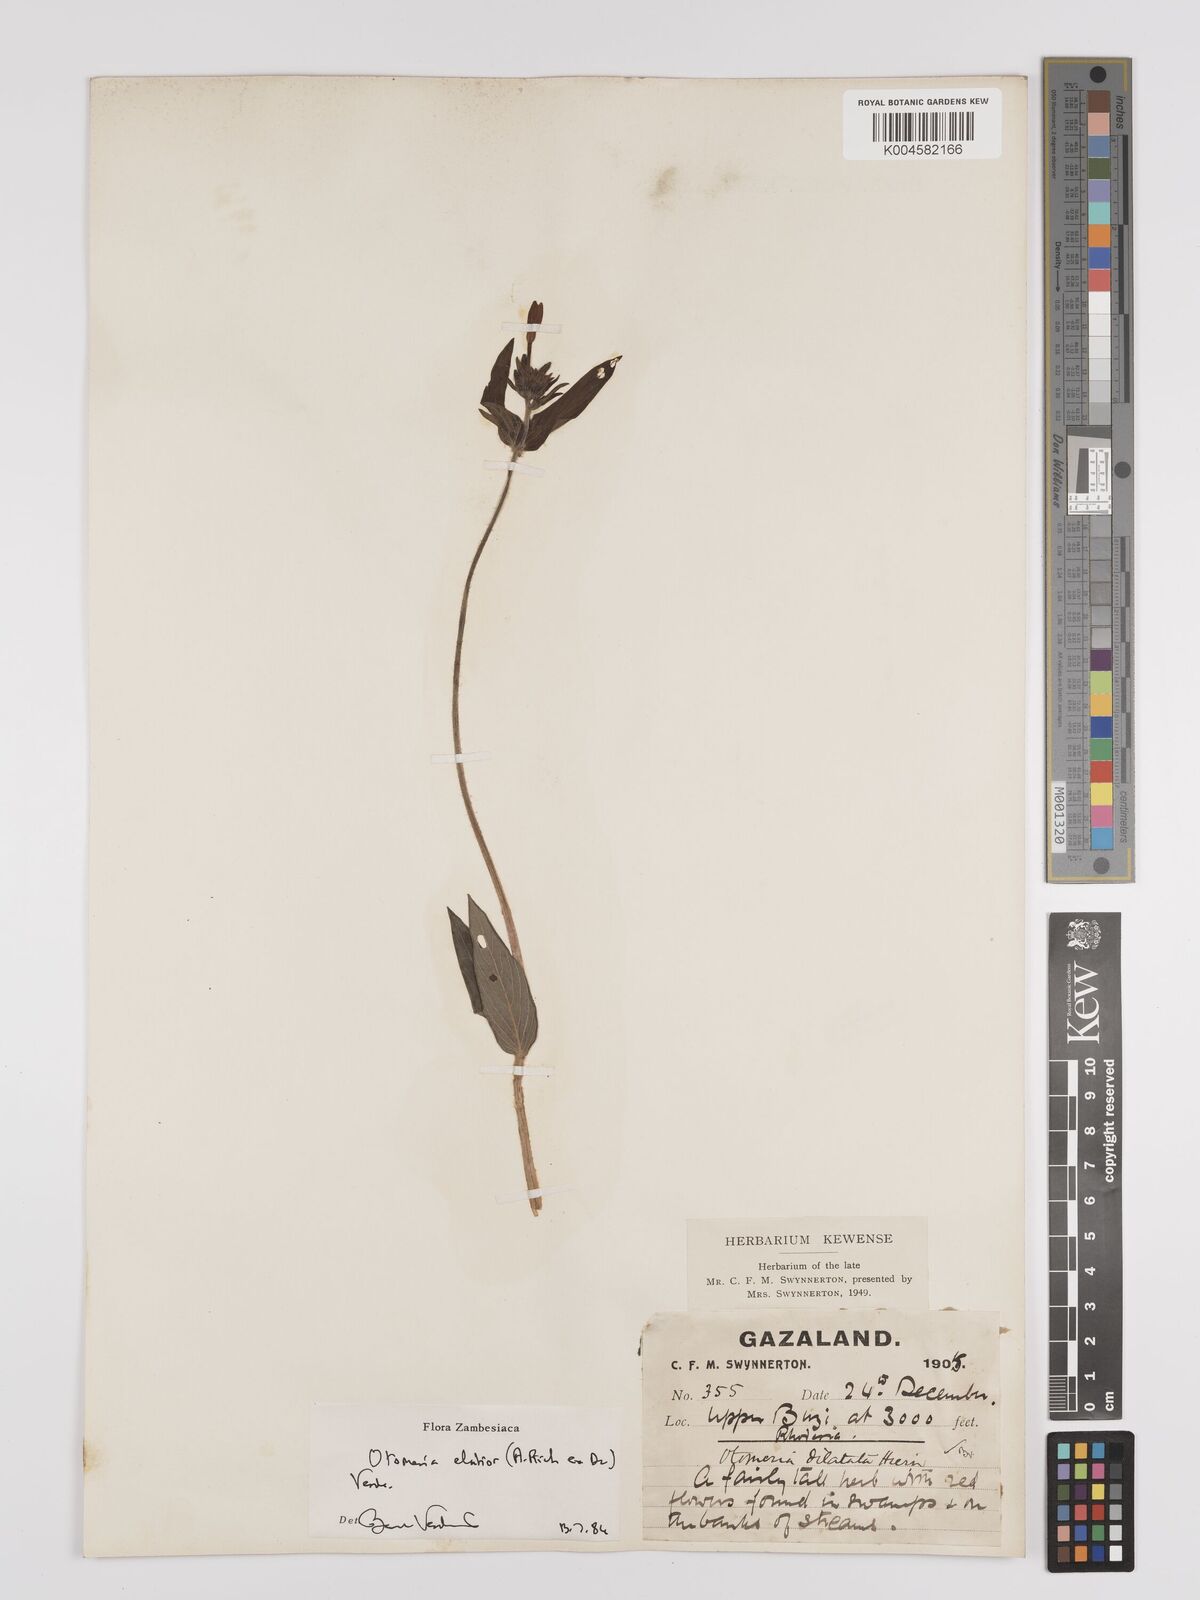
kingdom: Plantae
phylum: Tracheophyta
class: Magnoliopsida
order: Gentianales
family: Rubiaceae
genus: Otomeria
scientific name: Otomeria elatior
